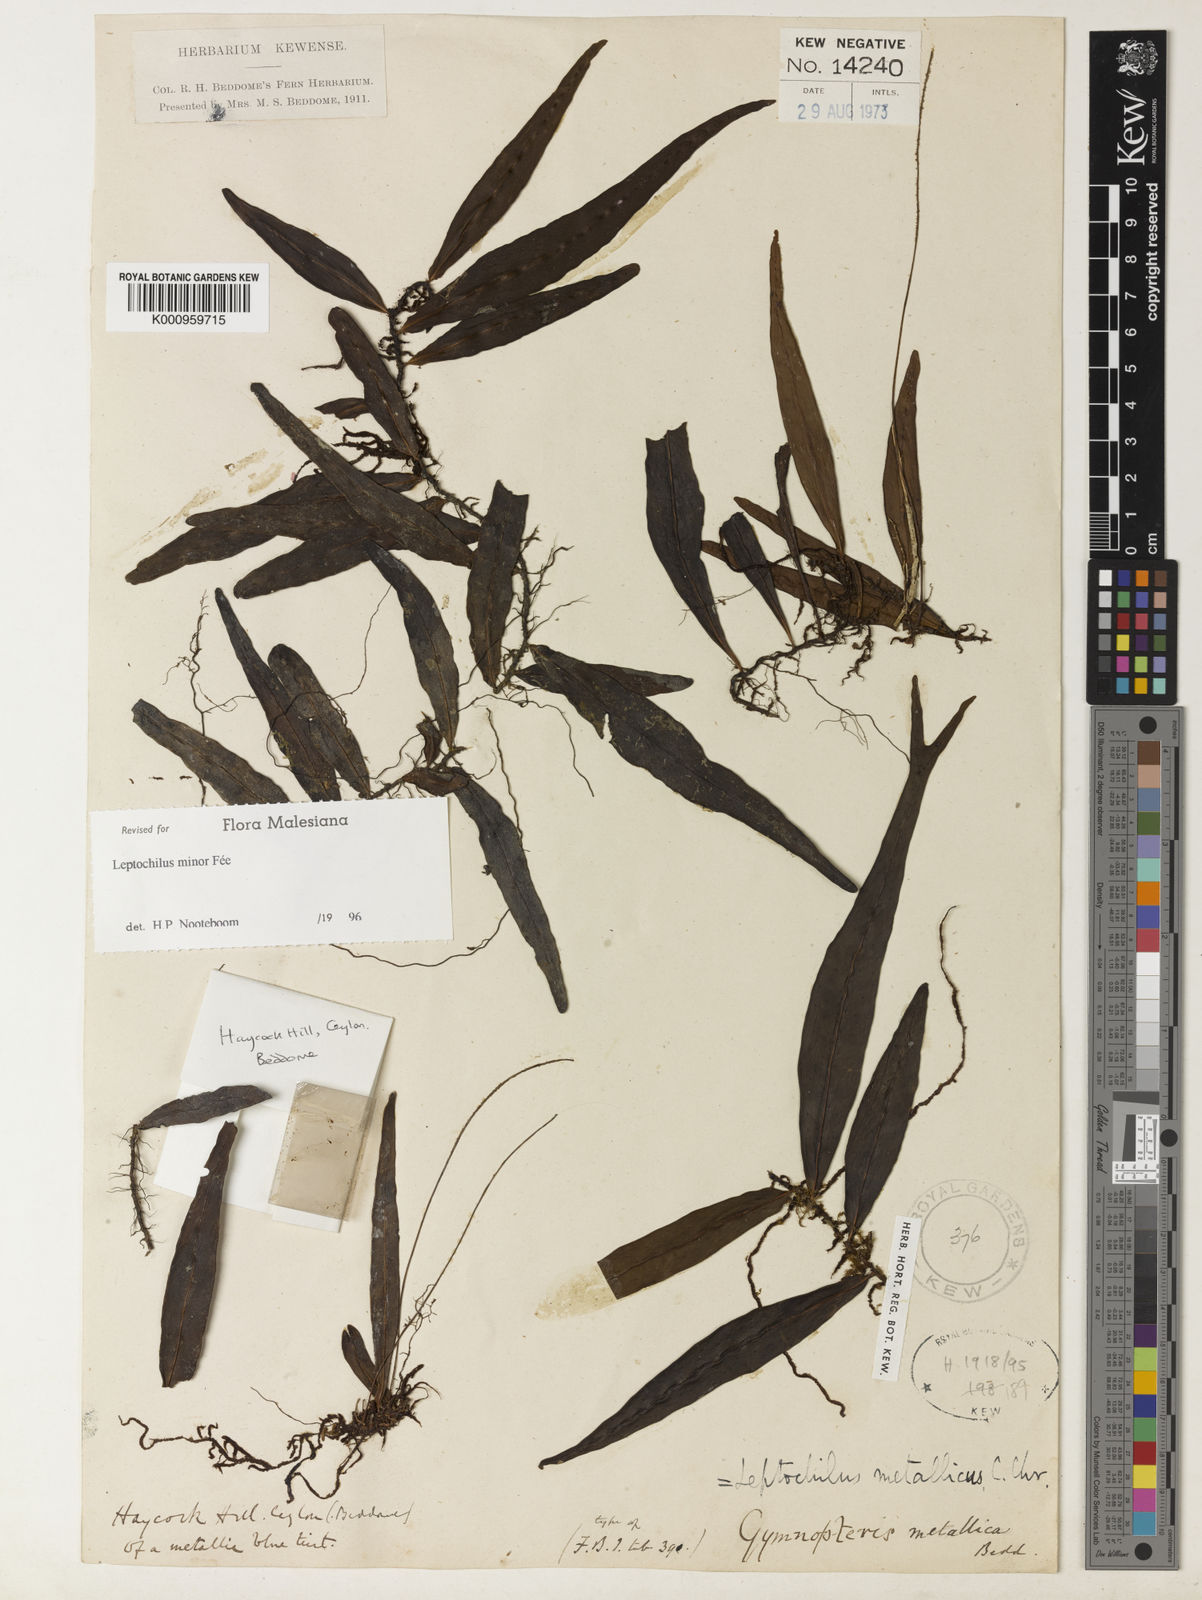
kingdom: Plantae
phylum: Tracheophyta
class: Polypodiopsida
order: Polypodiales
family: Polypodiaceae
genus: Leptochilus
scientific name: Leptochilus decurrens
